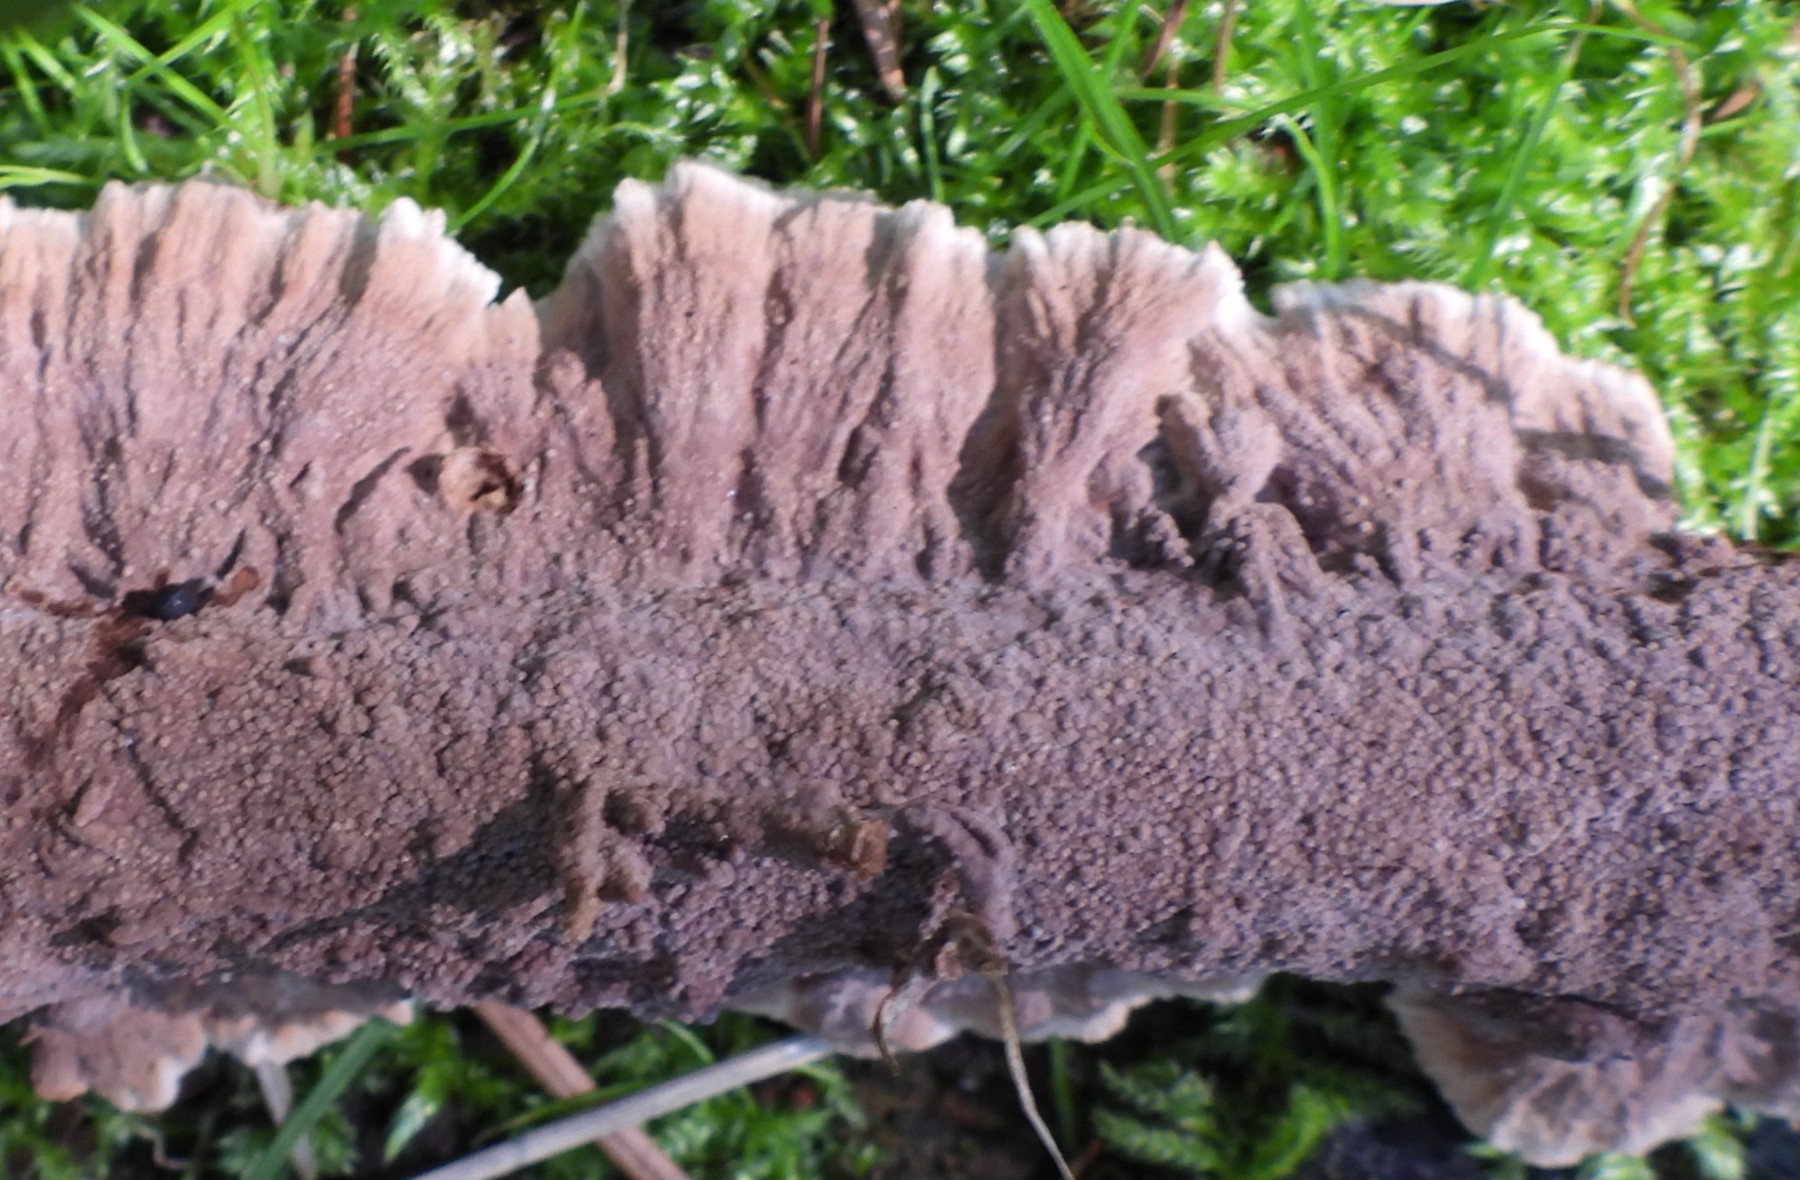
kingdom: Fungi
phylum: Basidiomycota
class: Agaricomycetes
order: Thelephorales
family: Thelephoraceae
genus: Thelephora
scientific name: Thelephora terrestris
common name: fliget frynsesvamp
